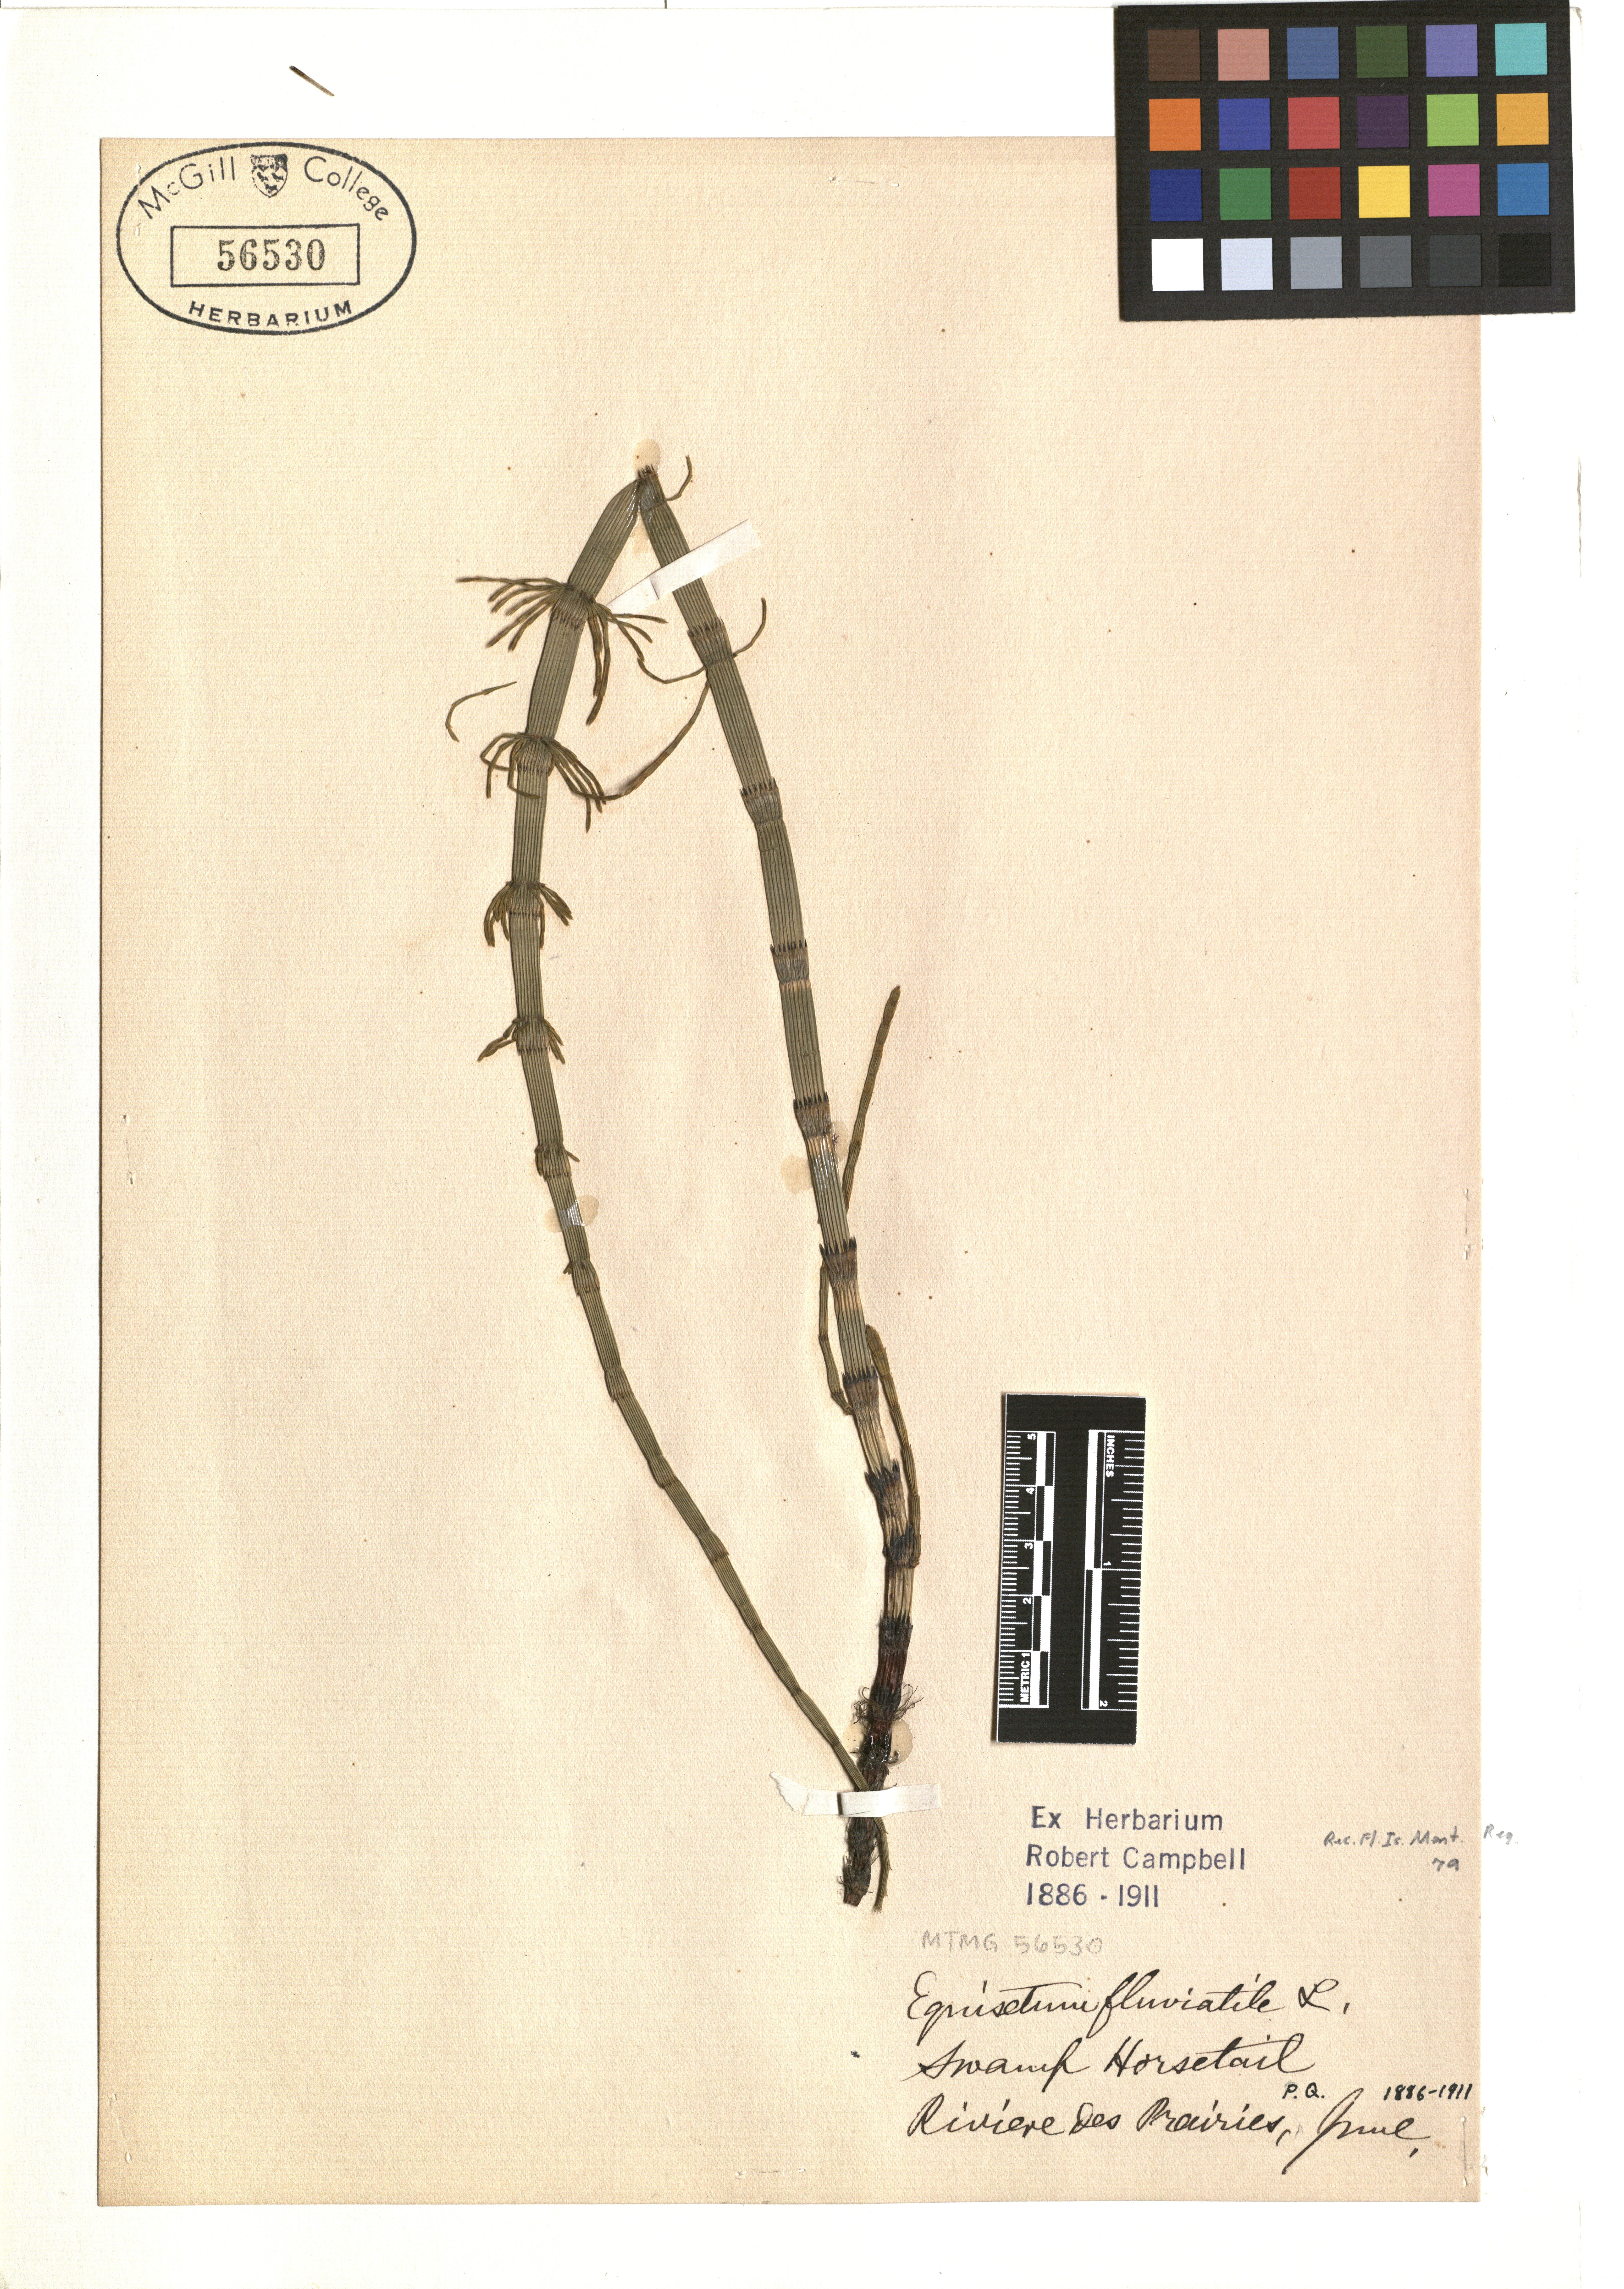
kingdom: Plantae
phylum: Tracheophyta
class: Polypodiopsida
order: Equisetales
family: Equisetaceae
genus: Equisetum
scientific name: Equisetum fluviatile
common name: Water horsetail
